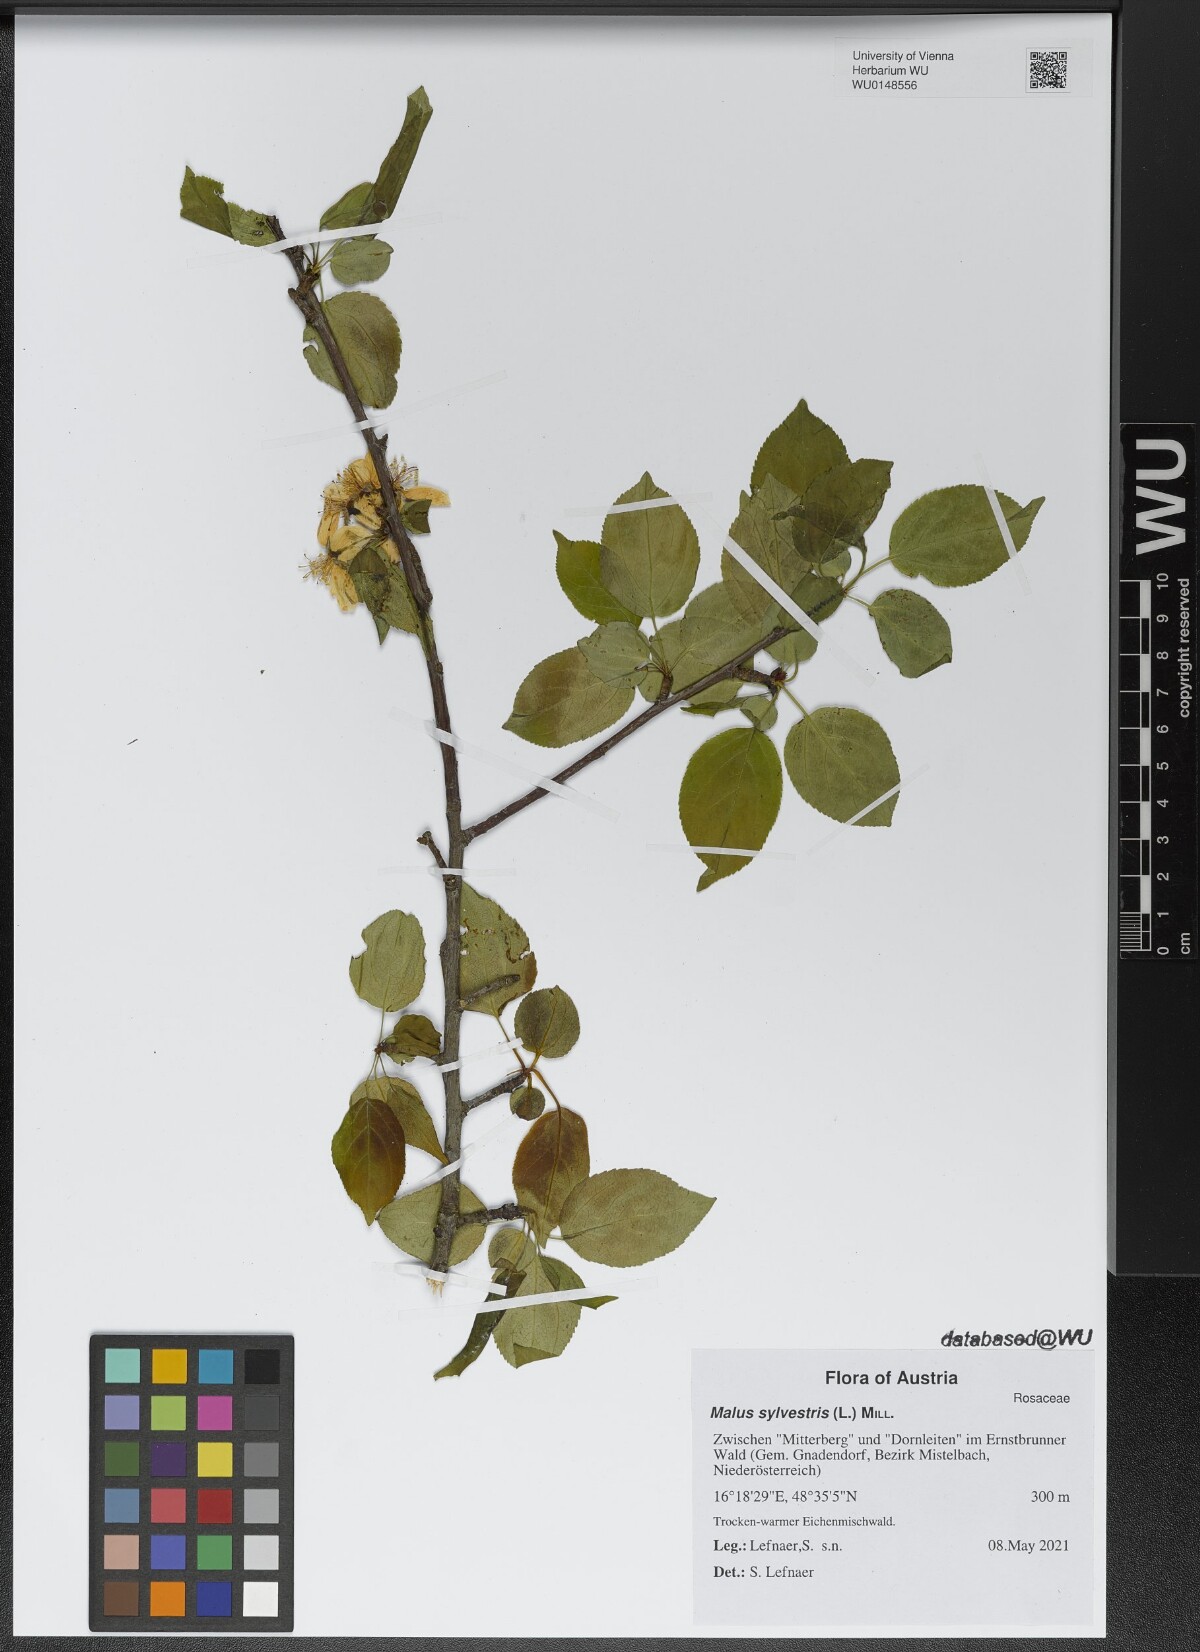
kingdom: Plantae
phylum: Tracheophyta
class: Magnoliopsida
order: Rosales
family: Rosaceae
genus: Malus
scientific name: Malus sylvestris
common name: Crab apple
